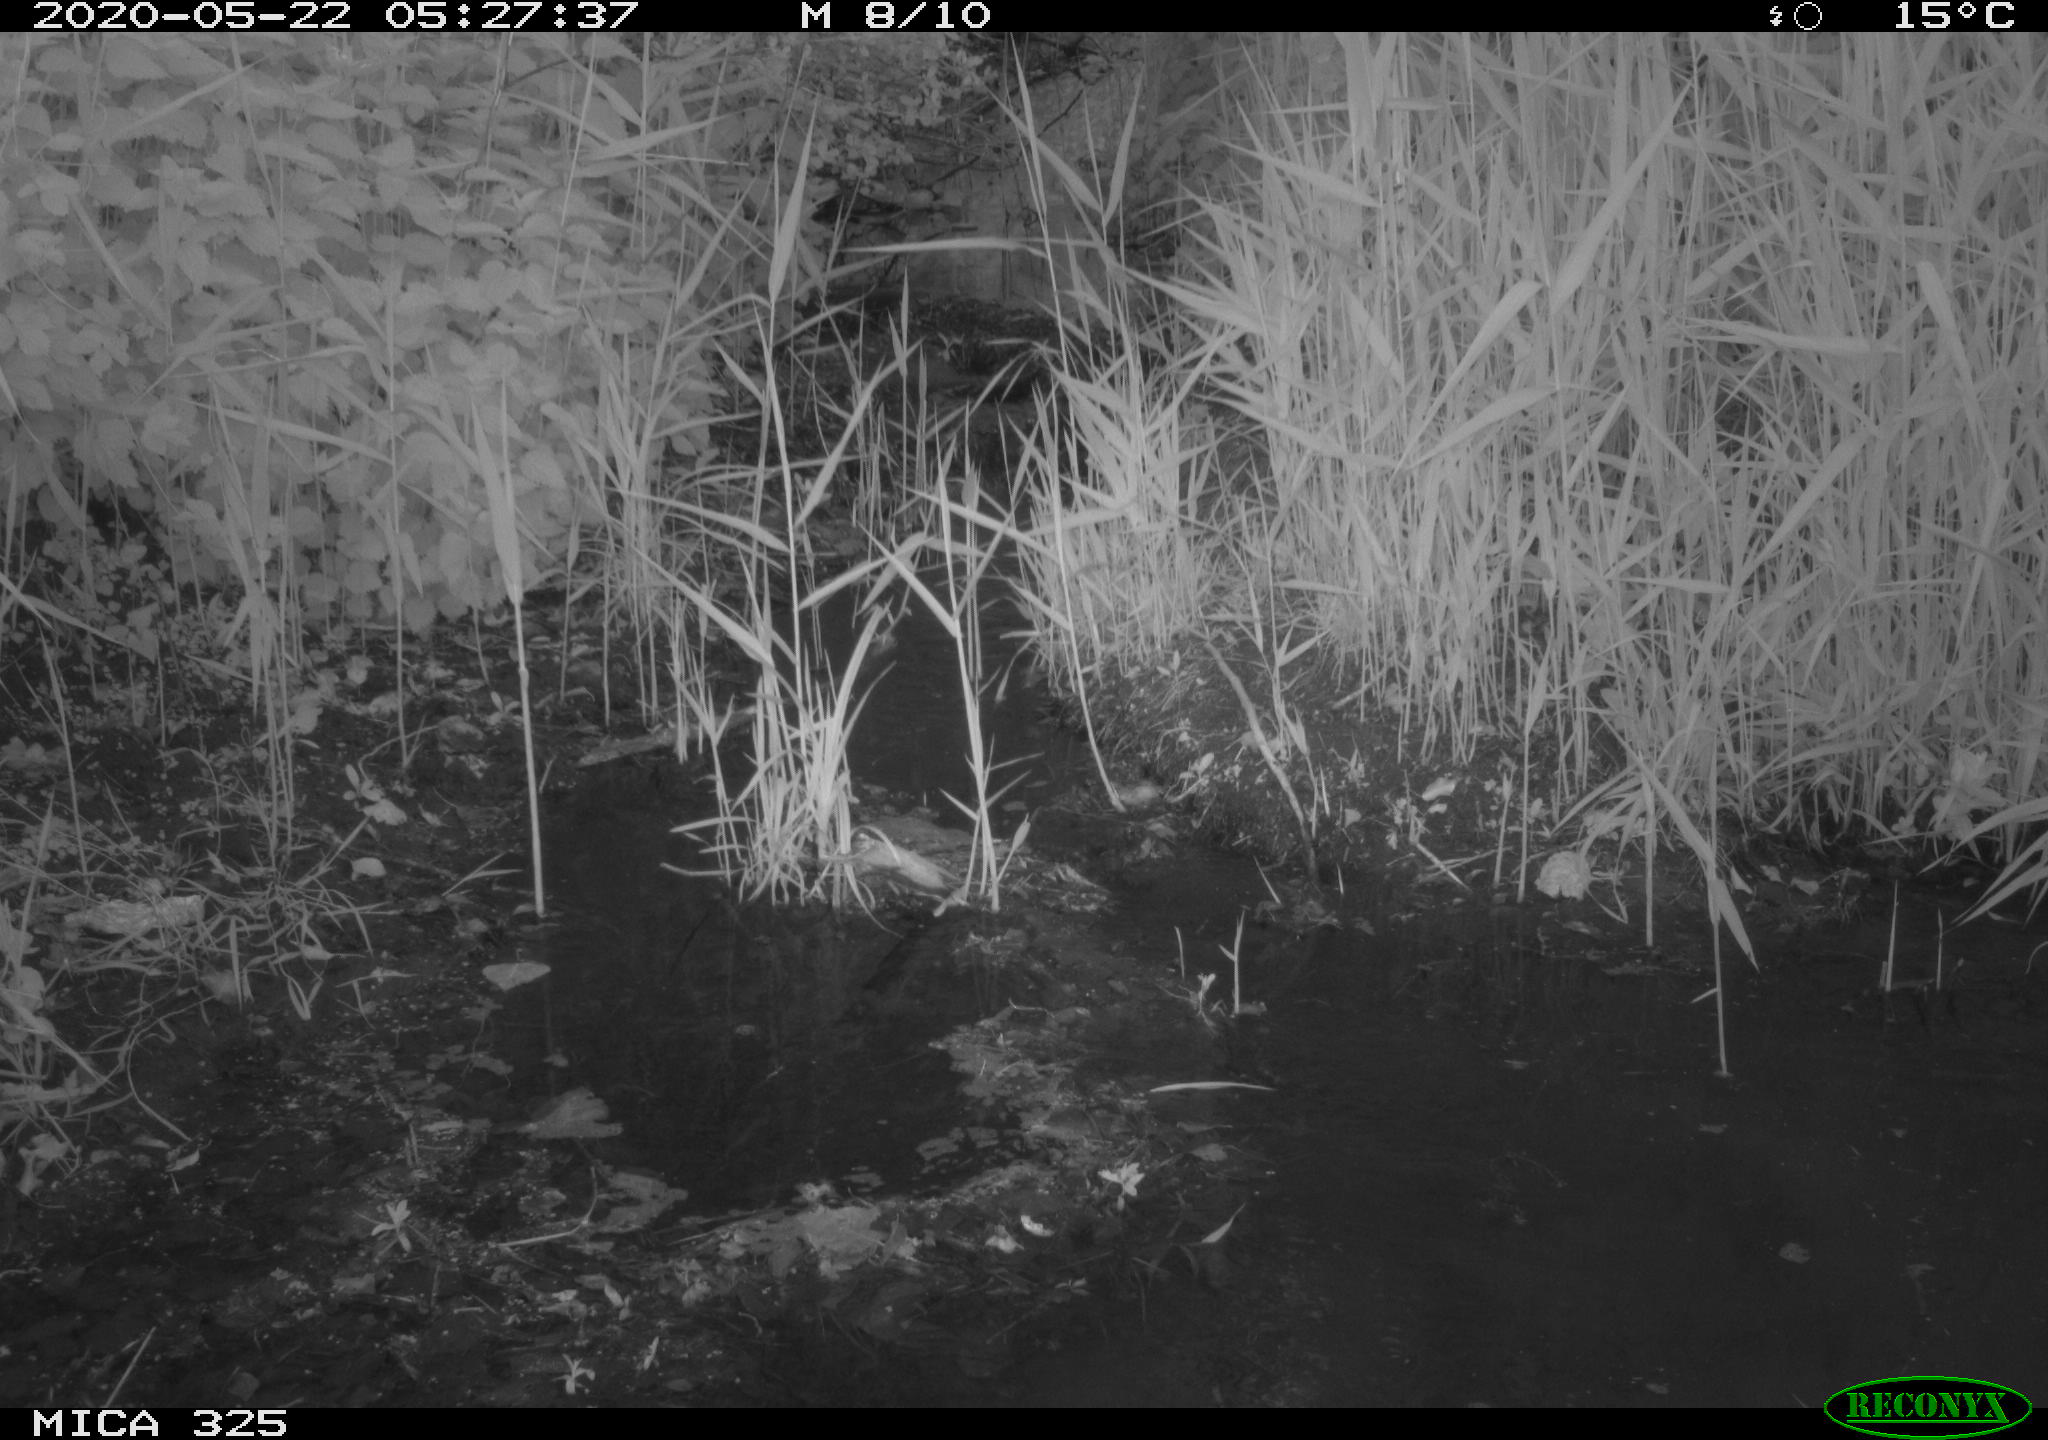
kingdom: Animalia
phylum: Chordata
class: Aves
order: Anseriformes
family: Anatidae
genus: Anas
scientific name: Anas platyrhynchos
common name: Mallard
